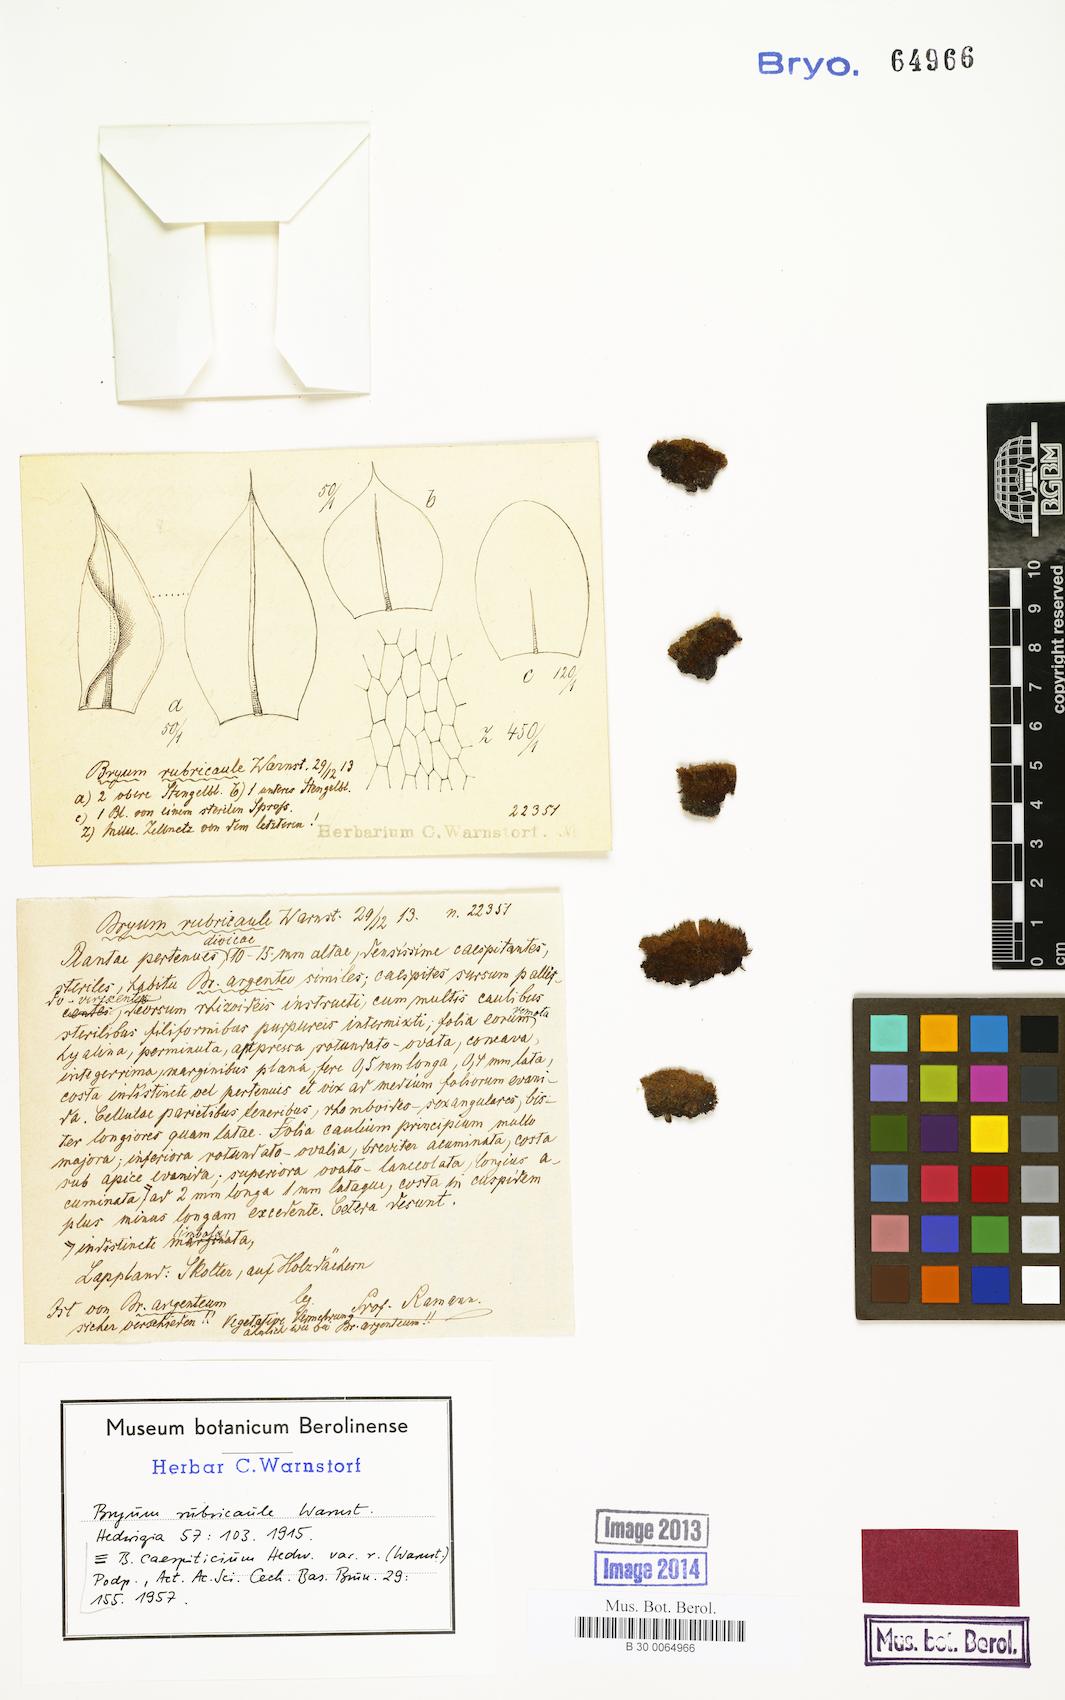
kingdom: Plantae
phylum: Bryophyta
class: Bryopsida
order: Bryales
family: Bryaceae
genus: Gemmabryum
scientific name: Gemmabryum caespiticium
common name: Handbell moss
